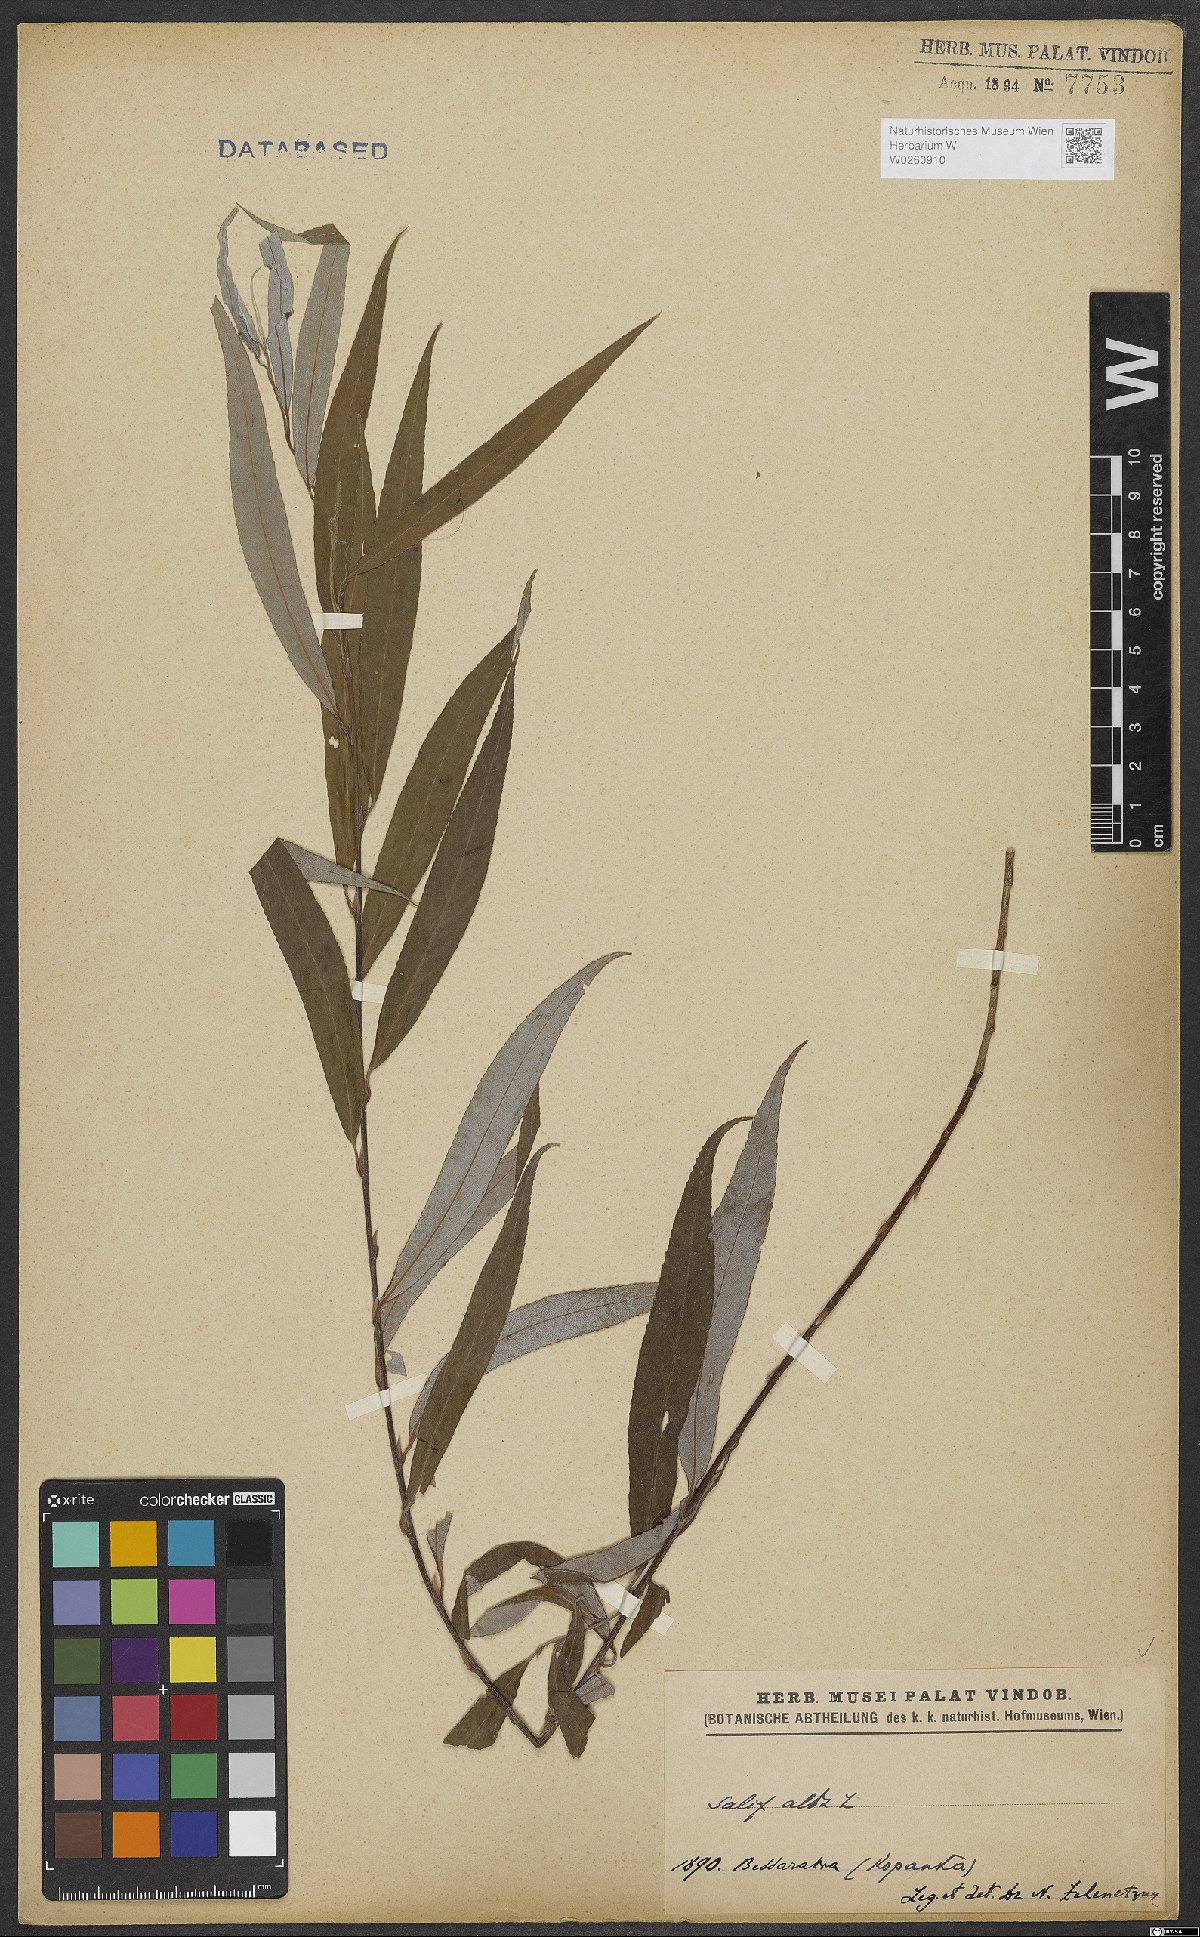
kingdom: Plantae
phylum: Tracheophyta
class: Magnoliopsida
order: Malpighiales
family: Salicaceae
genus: Salix
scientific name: Salix alba
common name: White willow
